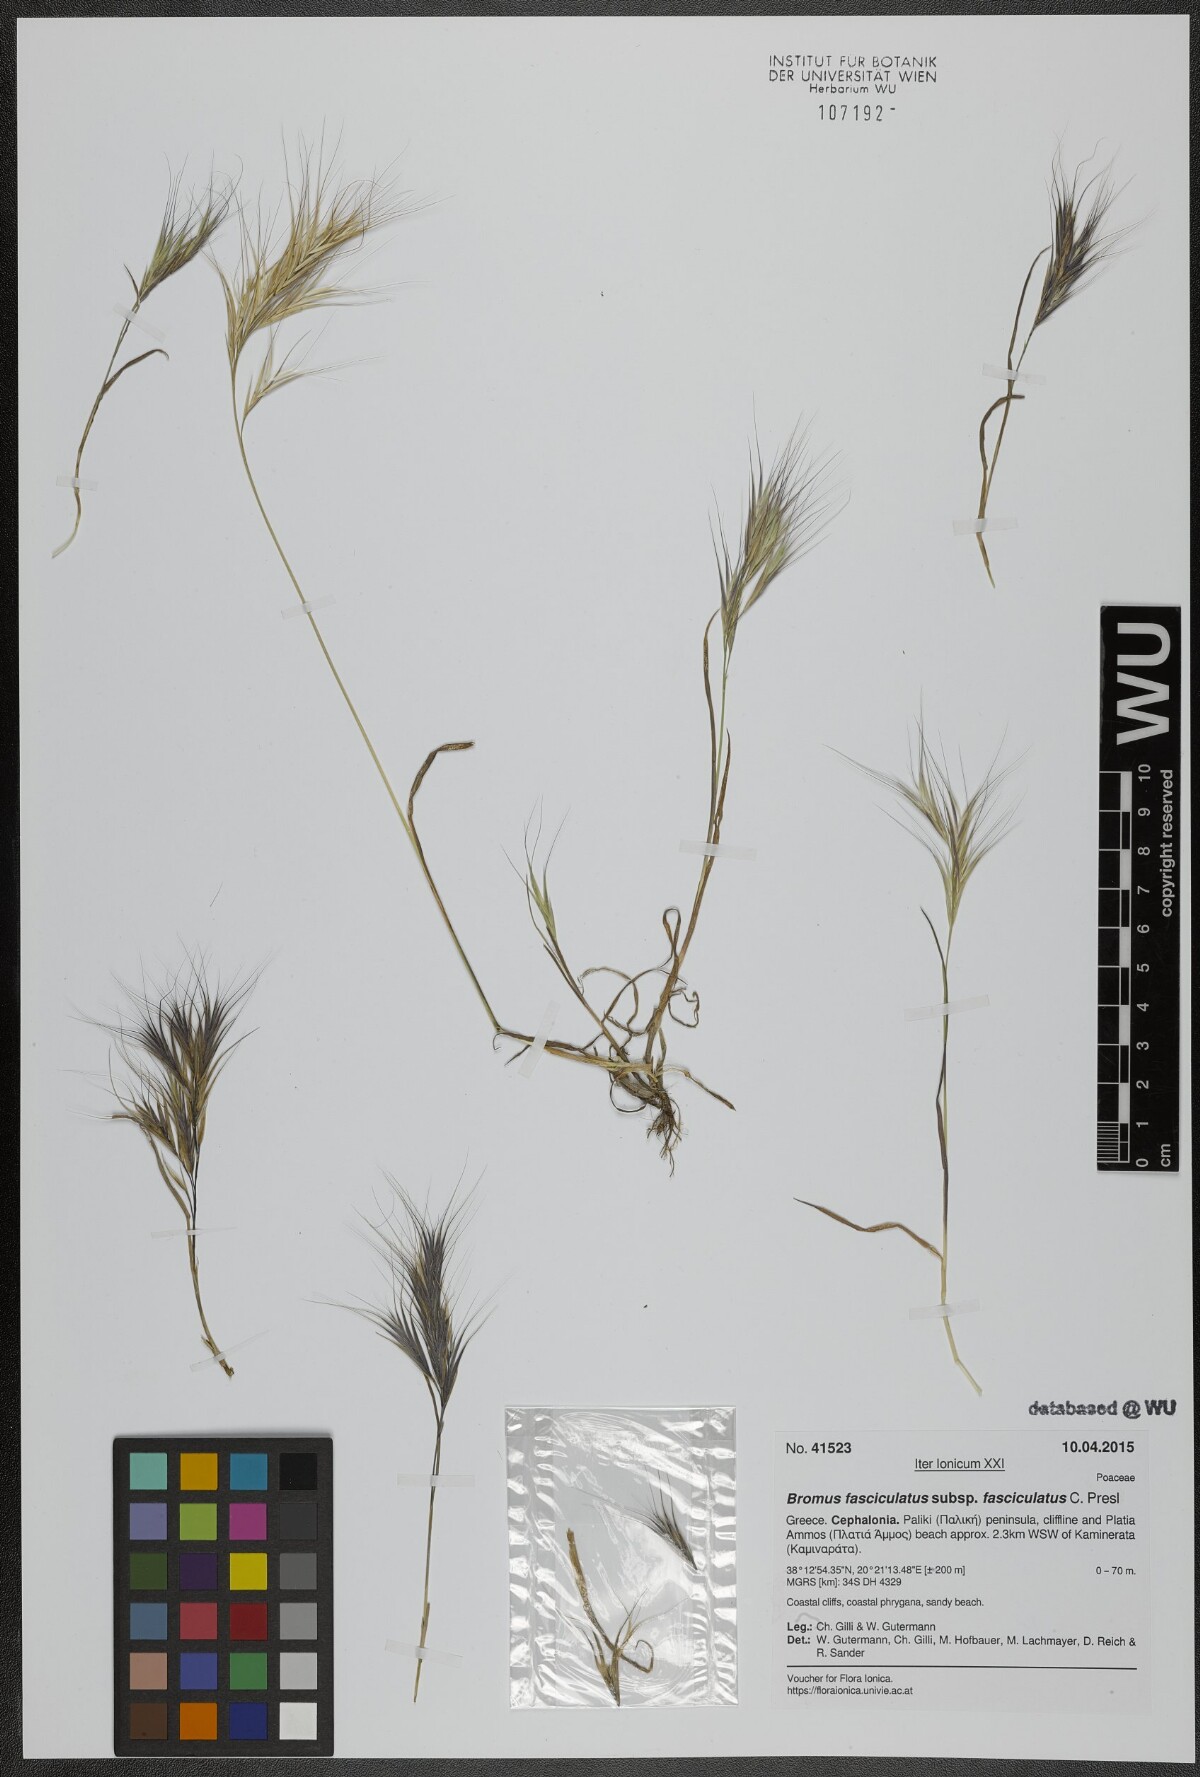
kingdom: Plantae
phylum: Tracheophyta
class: Liliopsida
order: Poales
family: Poaceae
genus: Bromus
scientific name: Bromus fasciculatus
